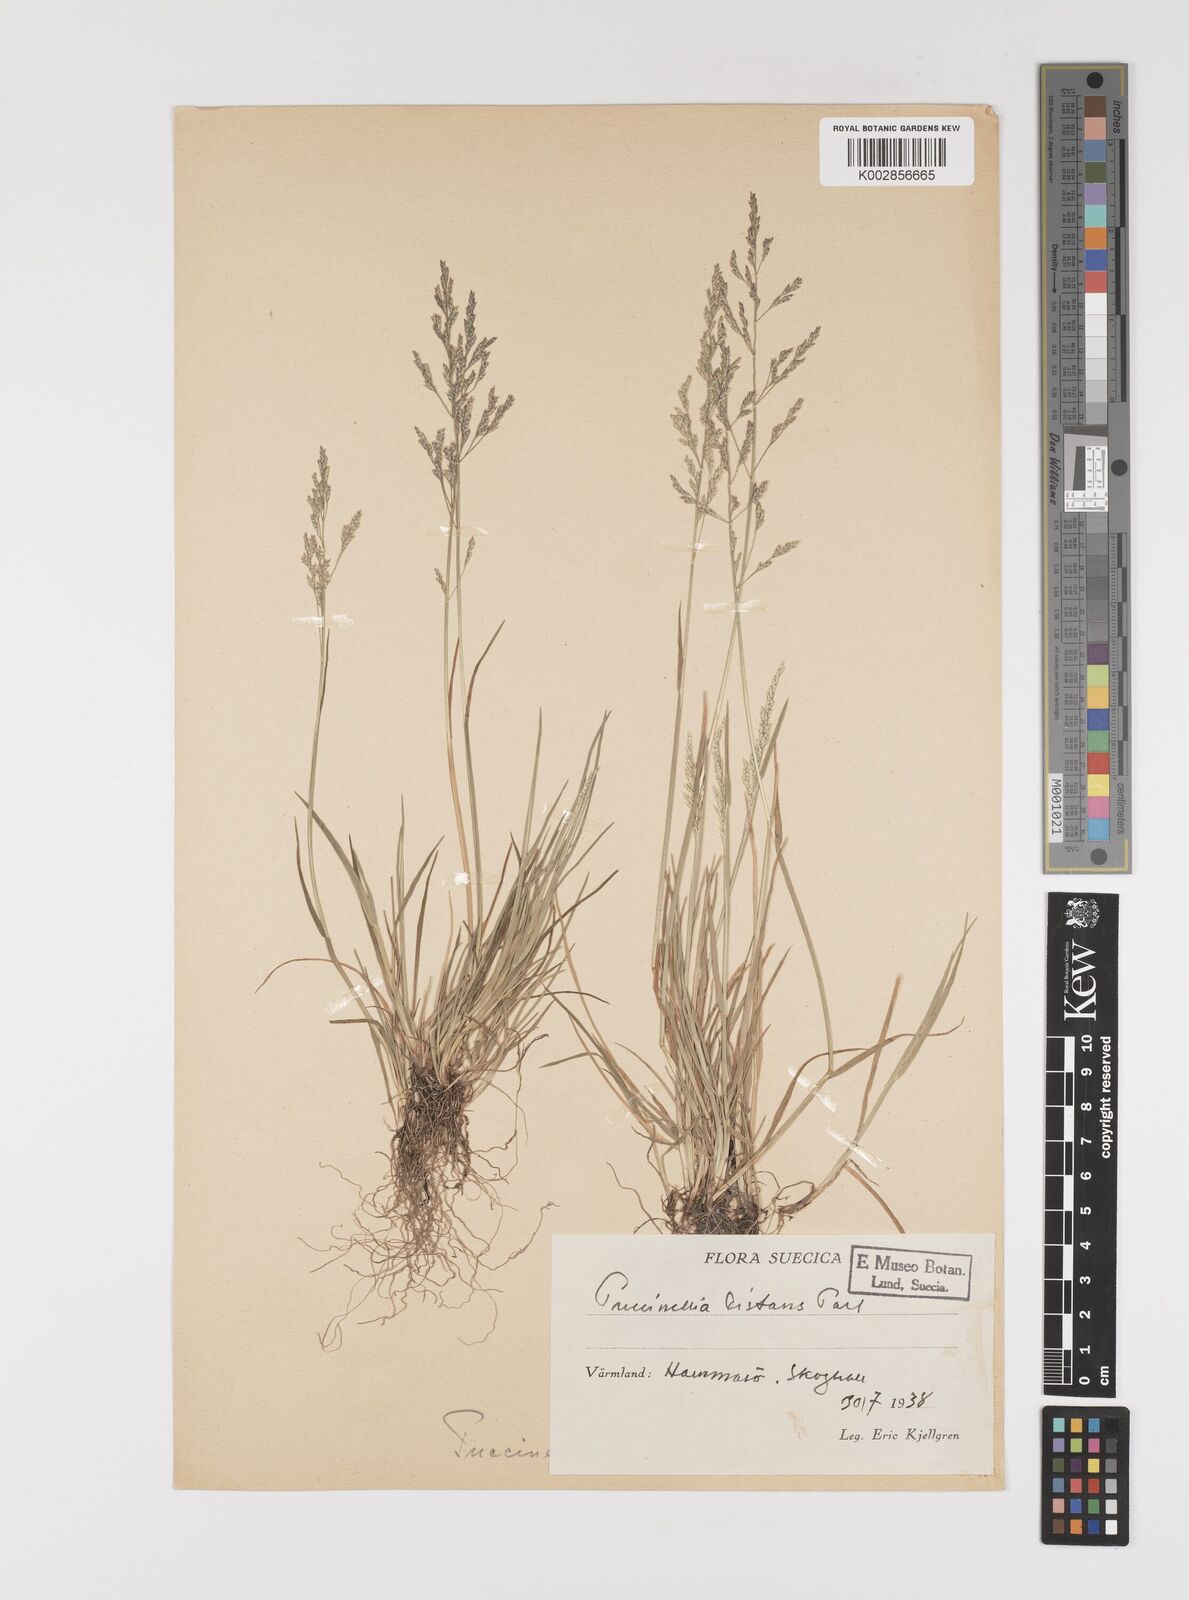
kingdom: Plantae
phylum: Tracheophyta
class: Liliopsida
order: Poales
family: Poaceae
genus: Puccinellia
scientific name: Puccinellia
